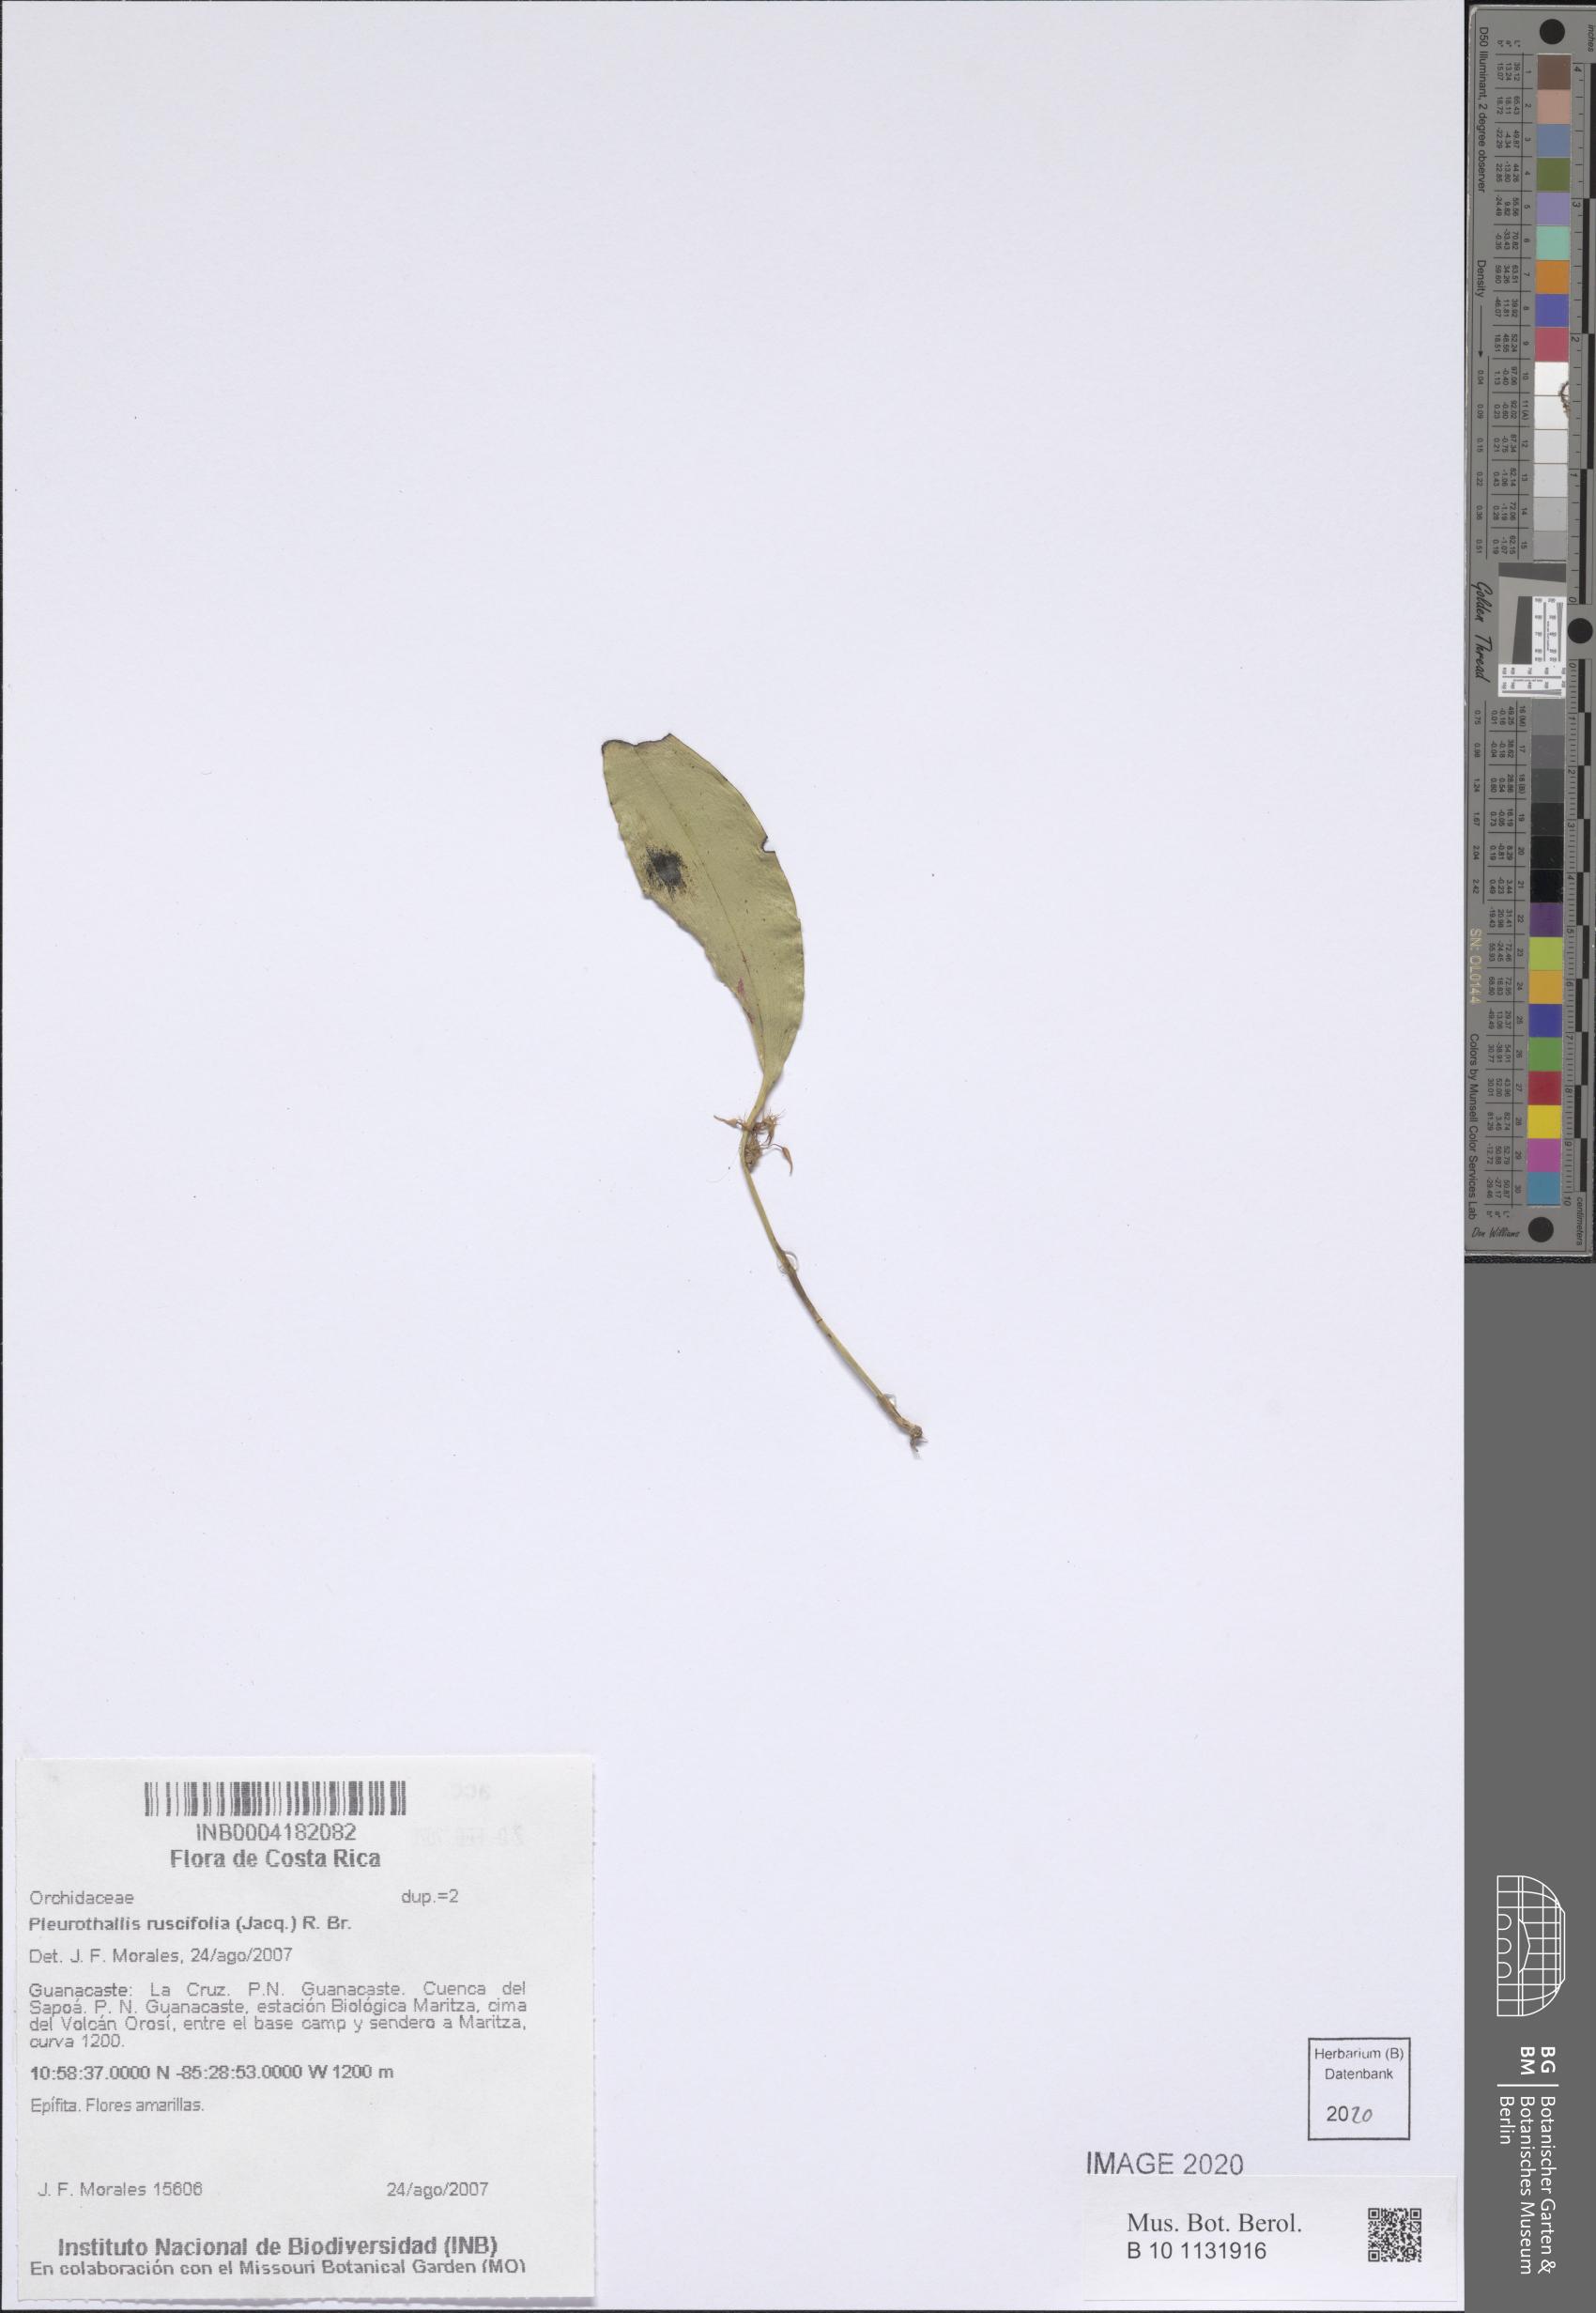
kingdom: Plantae
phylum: Tracheophyta
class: Liliopsida
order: Asparagales
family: Orchidaceae
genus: Pleurothallis
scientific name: Pleurothallis ruscifolia
